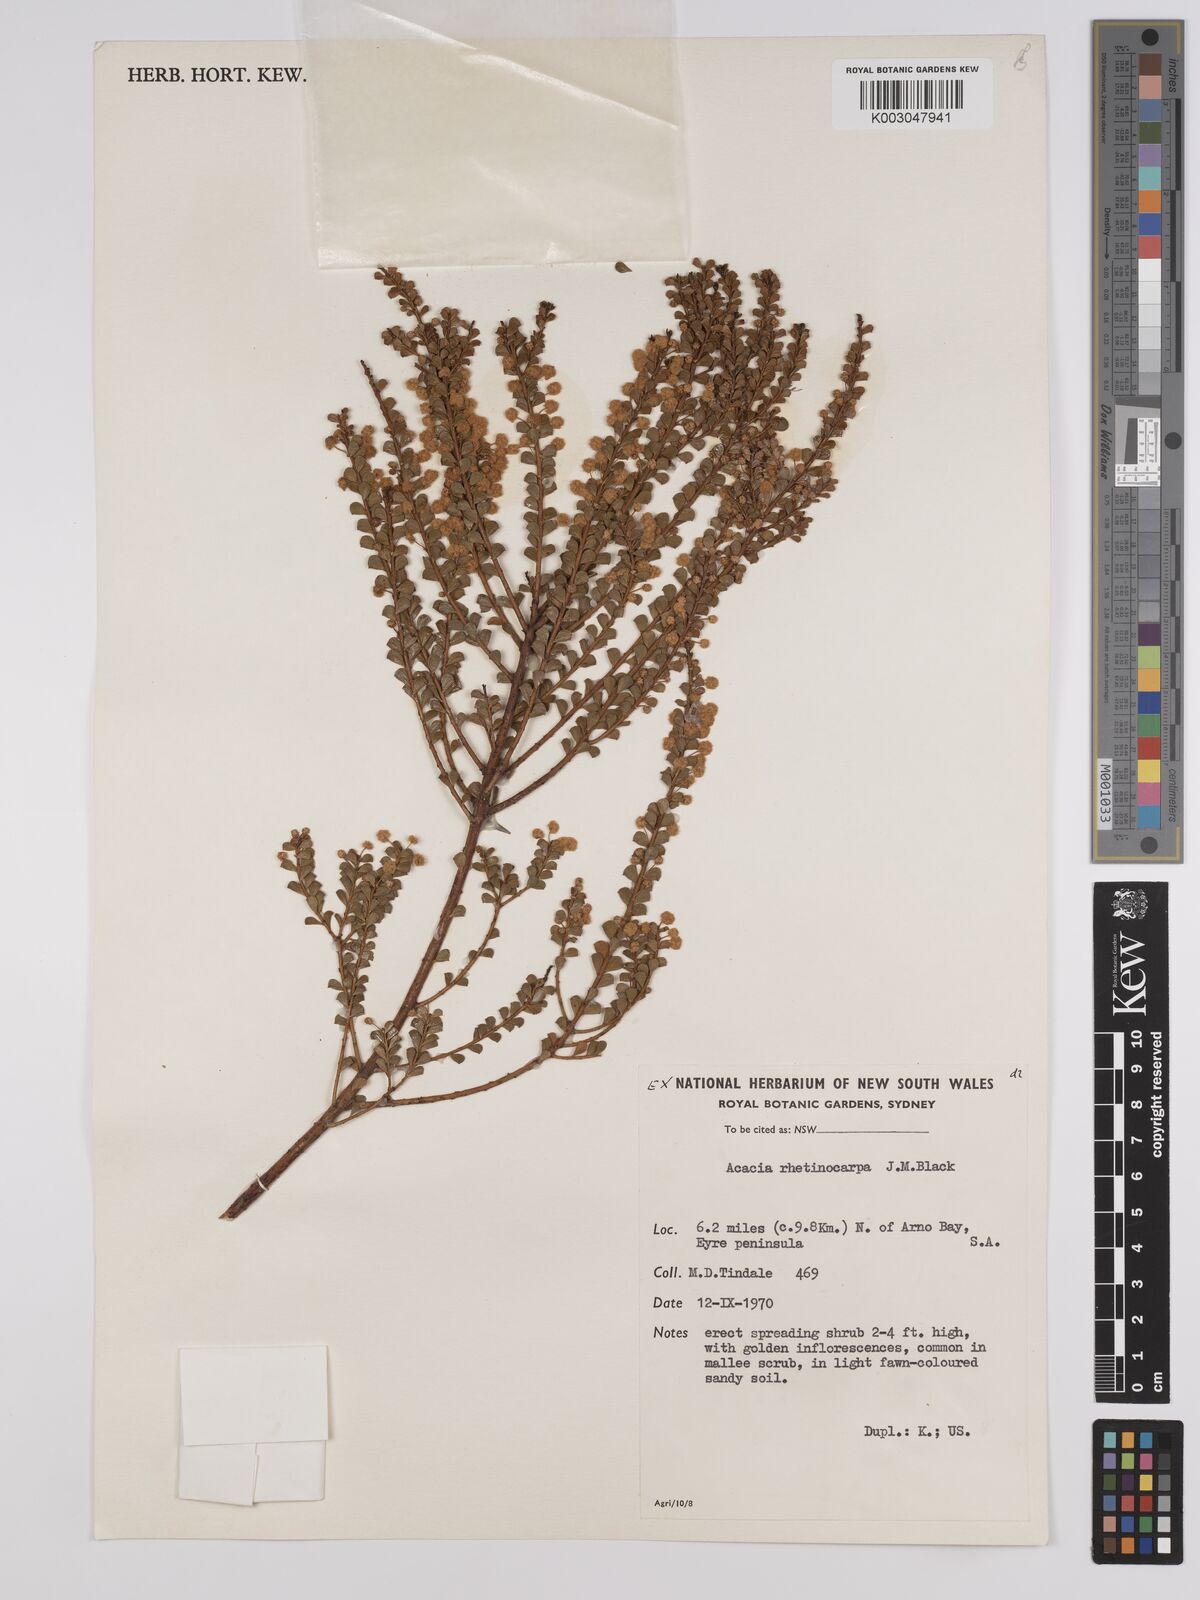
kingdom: Plantae
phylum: Tracheophyta
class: Magnoliopsida
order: Fabales
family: Fabaceae
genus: Acacia
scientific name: Acacia brachyclada
